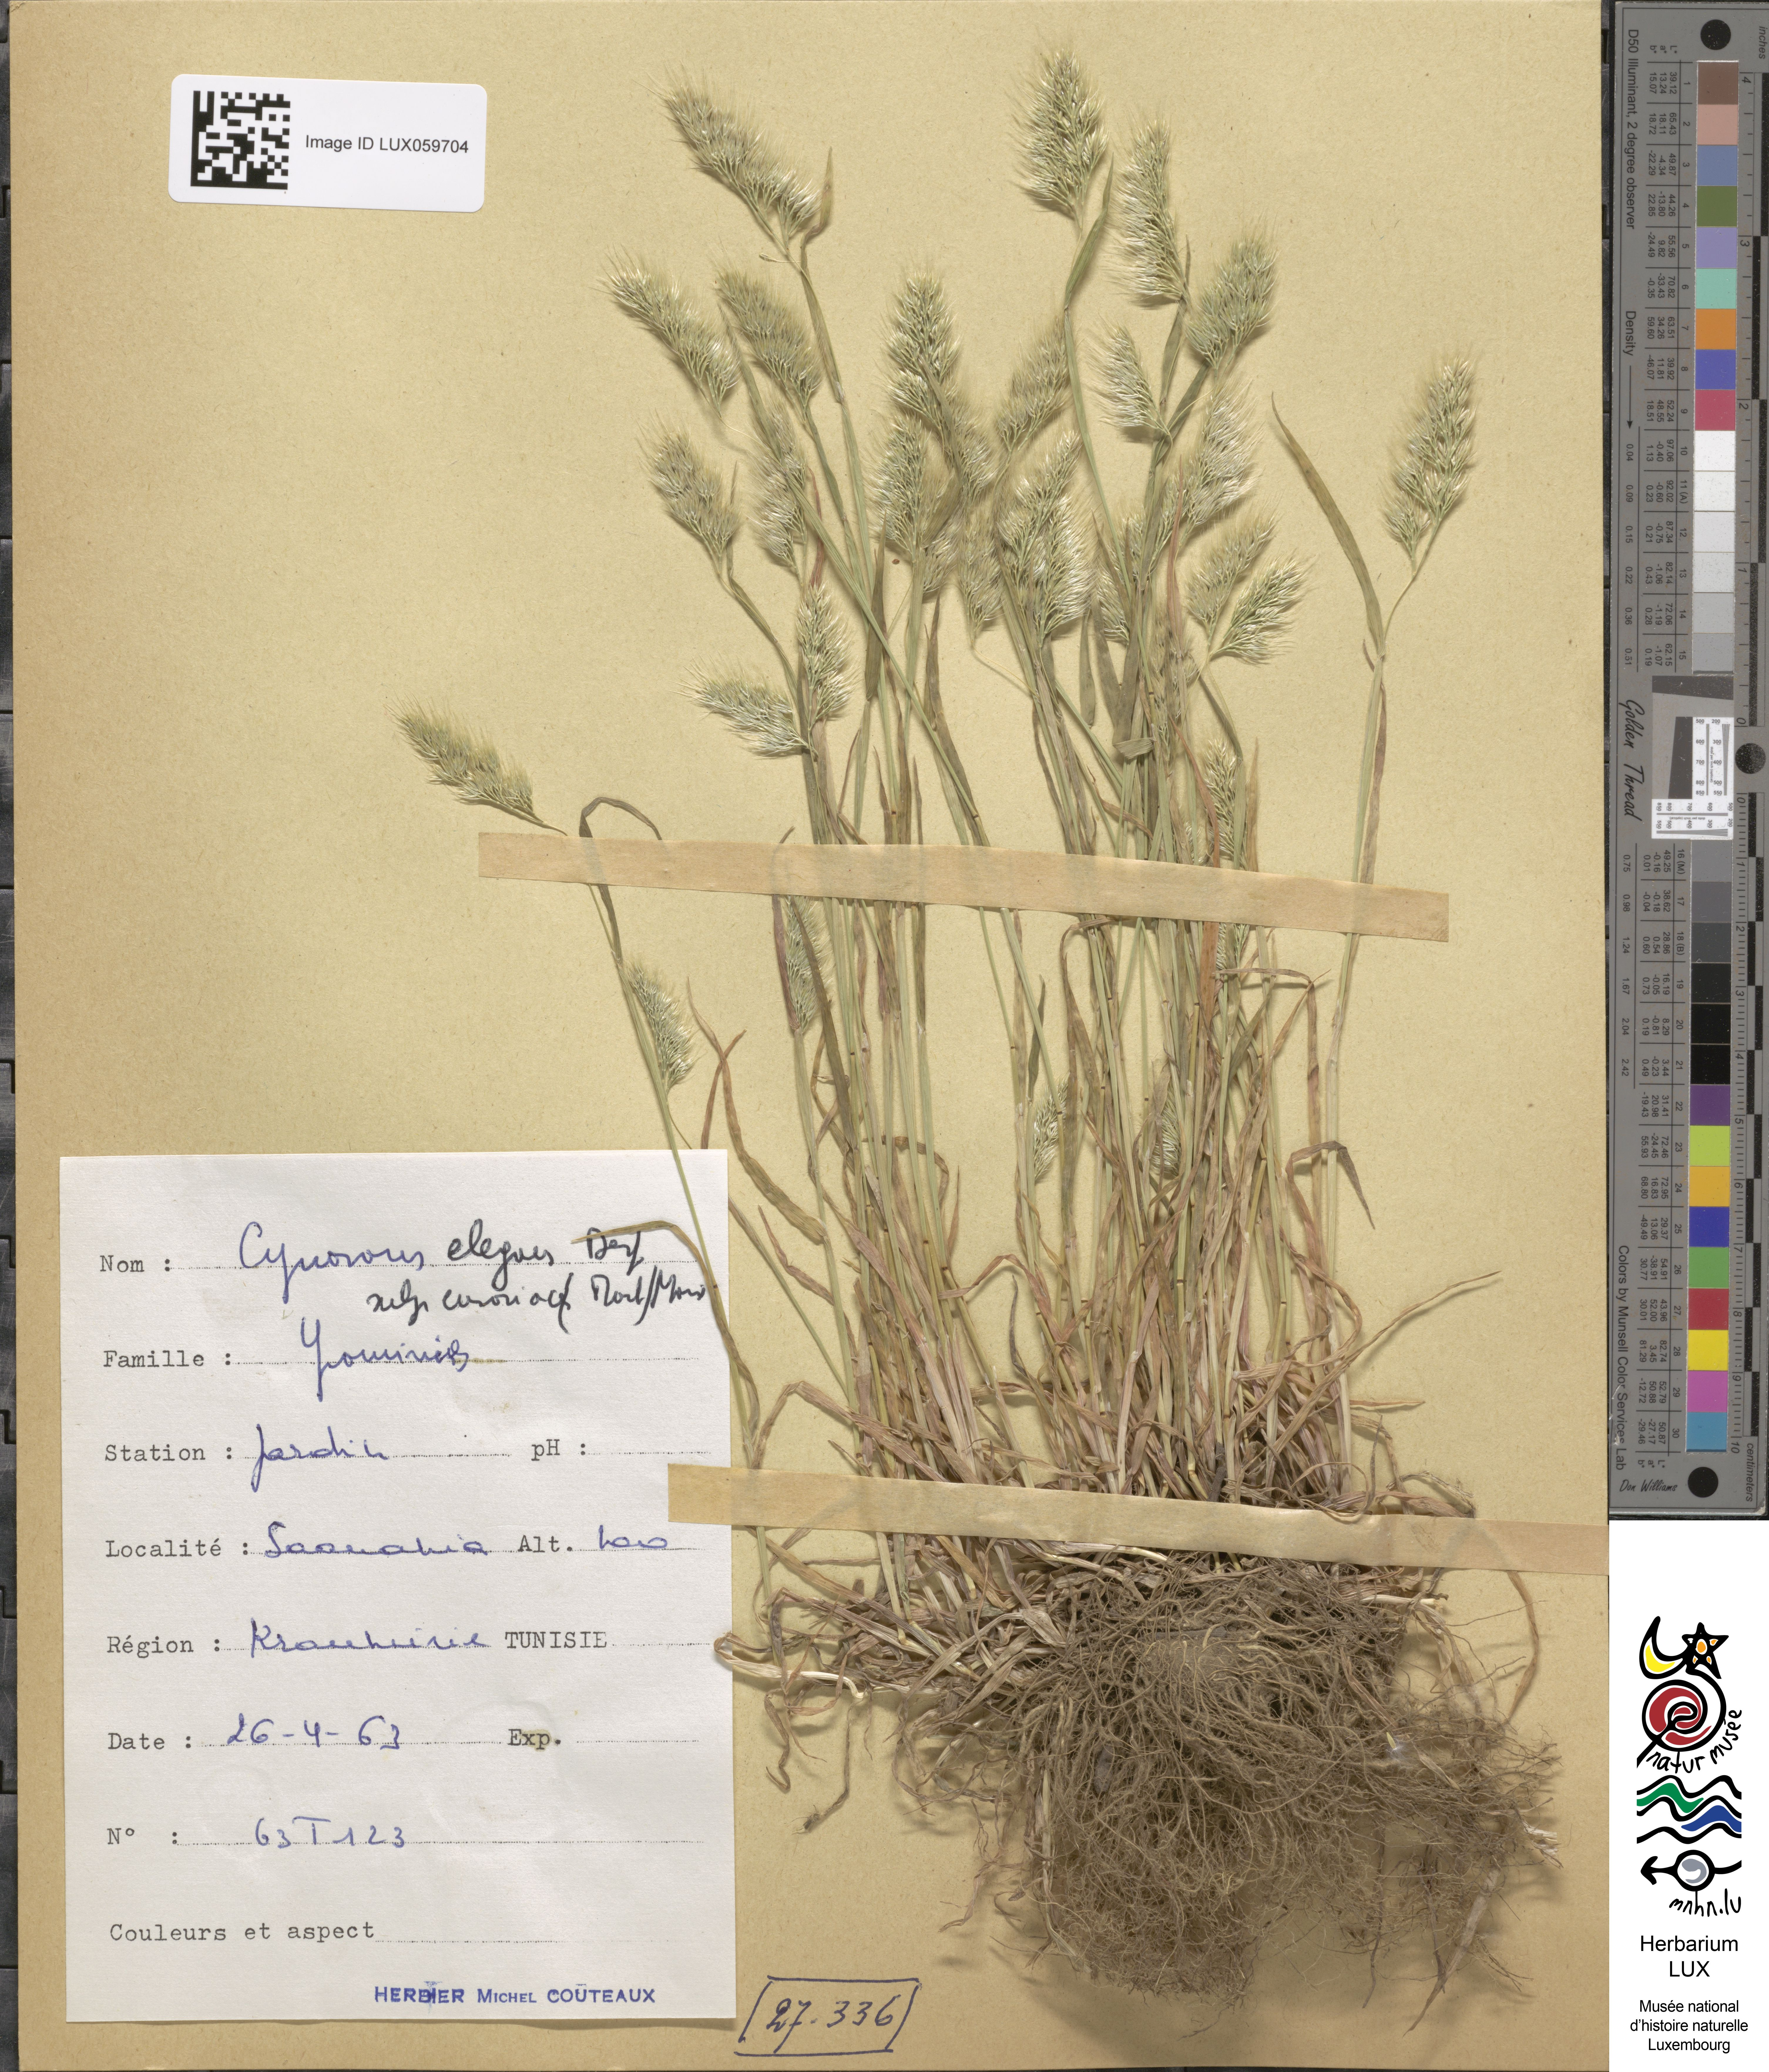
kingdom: Plantae
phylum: Tracheophyta
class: Liliopsida
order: Poales
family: Poaceae
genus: Cynosurus
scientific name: Cynosurus elegans
